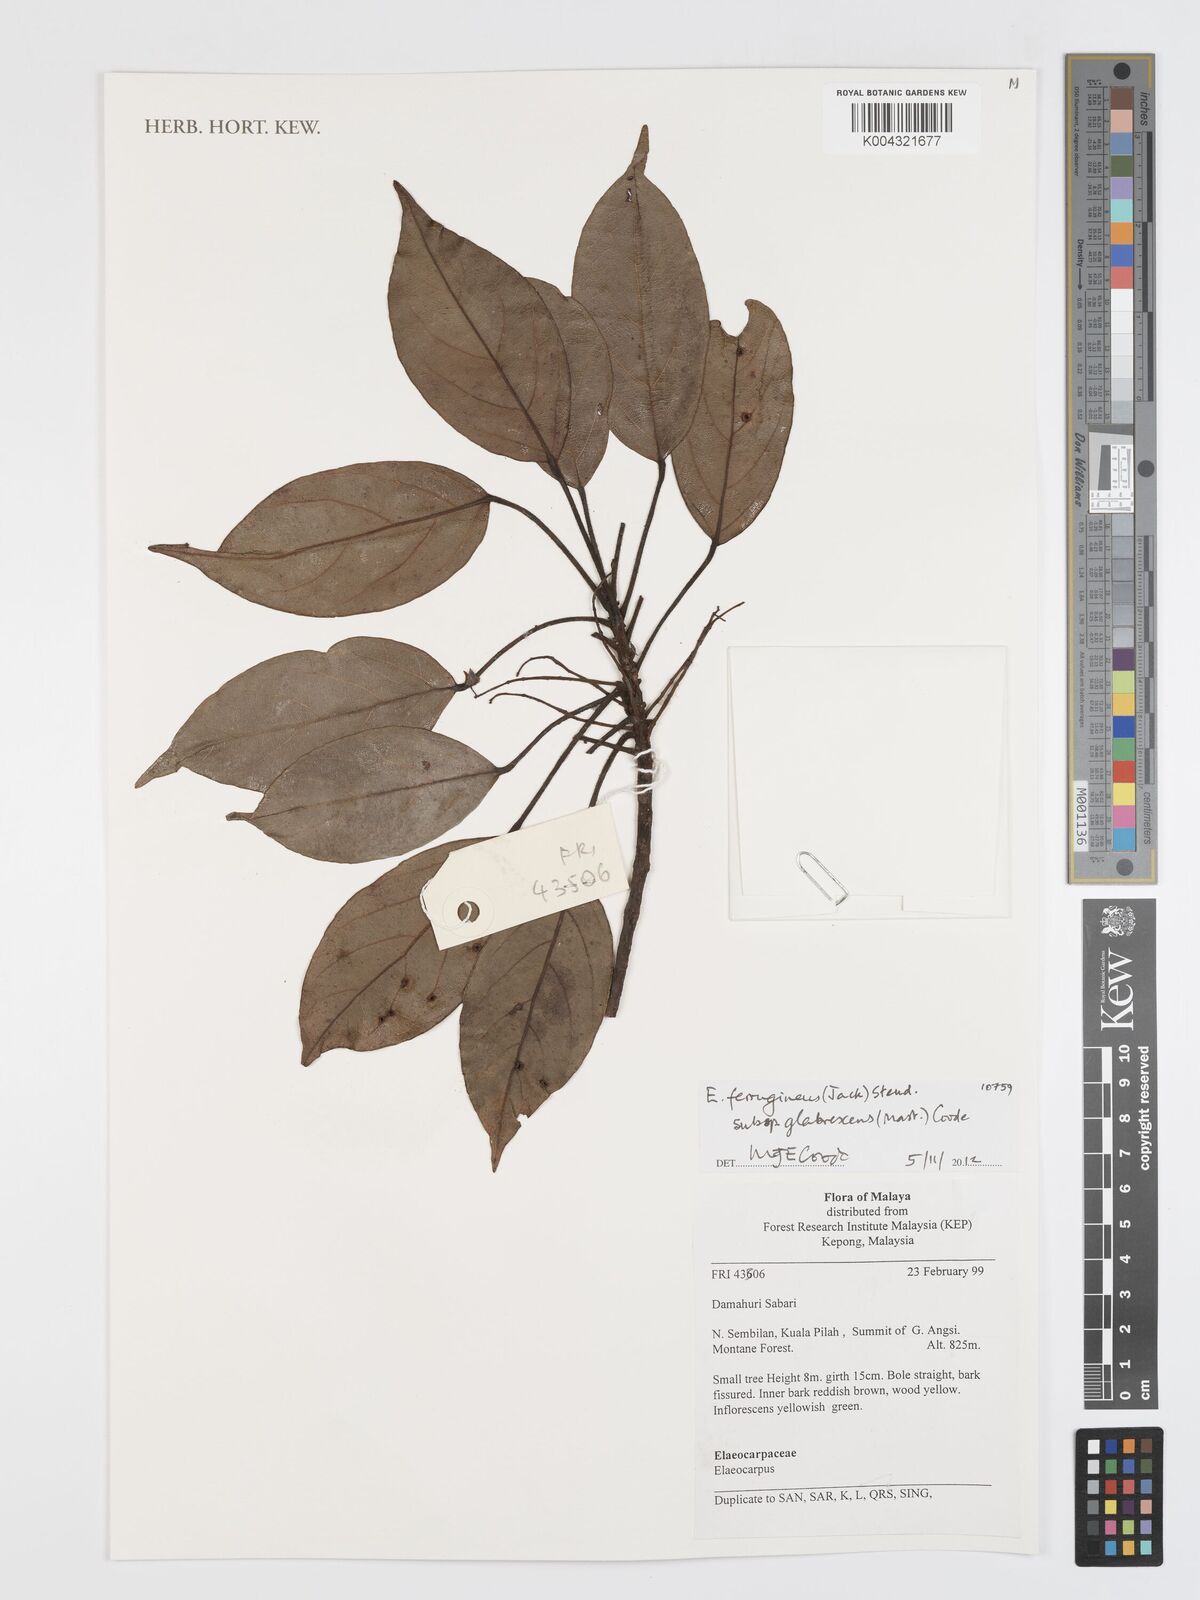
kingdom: Plantae
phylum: Tracheophyta
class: Magnoliopsida
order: Oxalidales
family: Elaeocarpaceae
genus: Elaeocarpus
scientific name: Elaeocarpus ferrugineus
